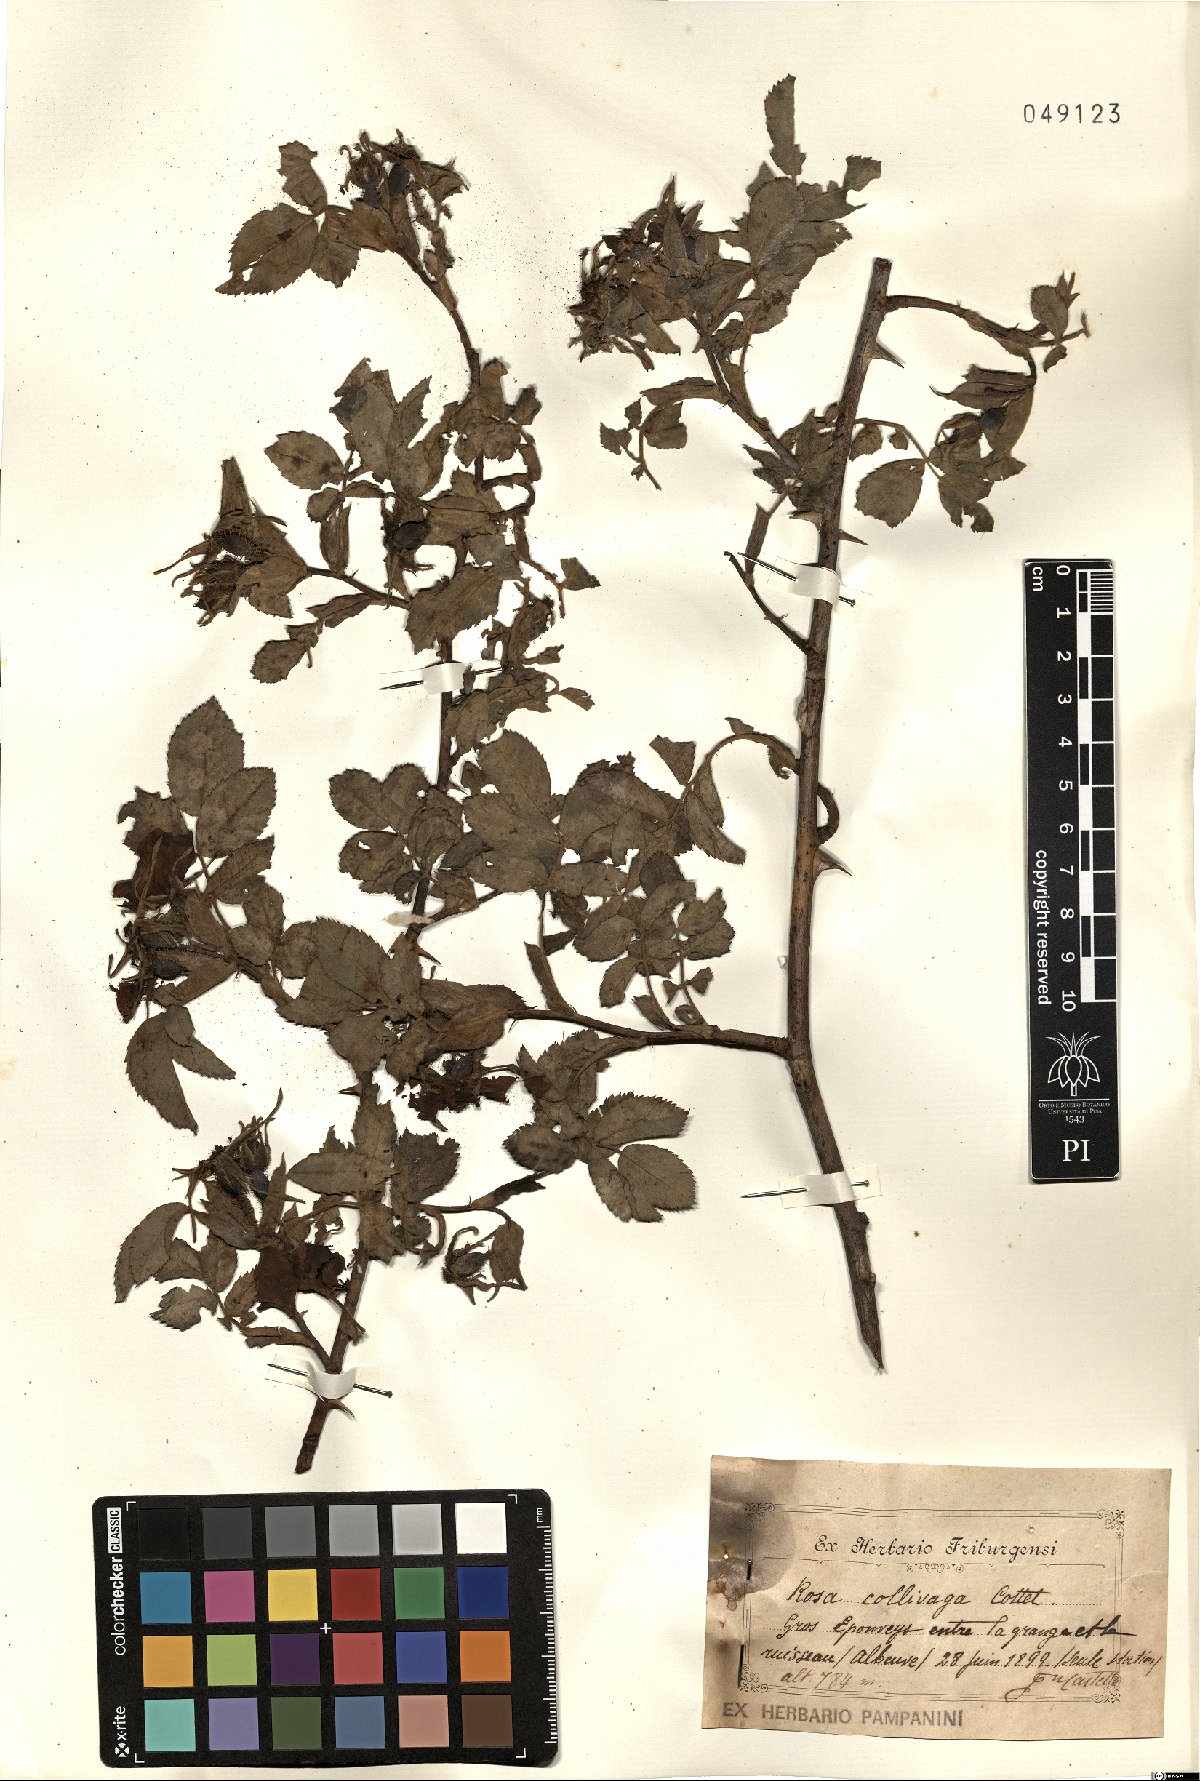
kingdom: Plantae
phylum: Tracheophyta
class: Magnoliopsida
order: Rosales
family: Rosaceae
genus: Rosa
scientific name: Rosa sherardii
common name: Sherard's downy rose
